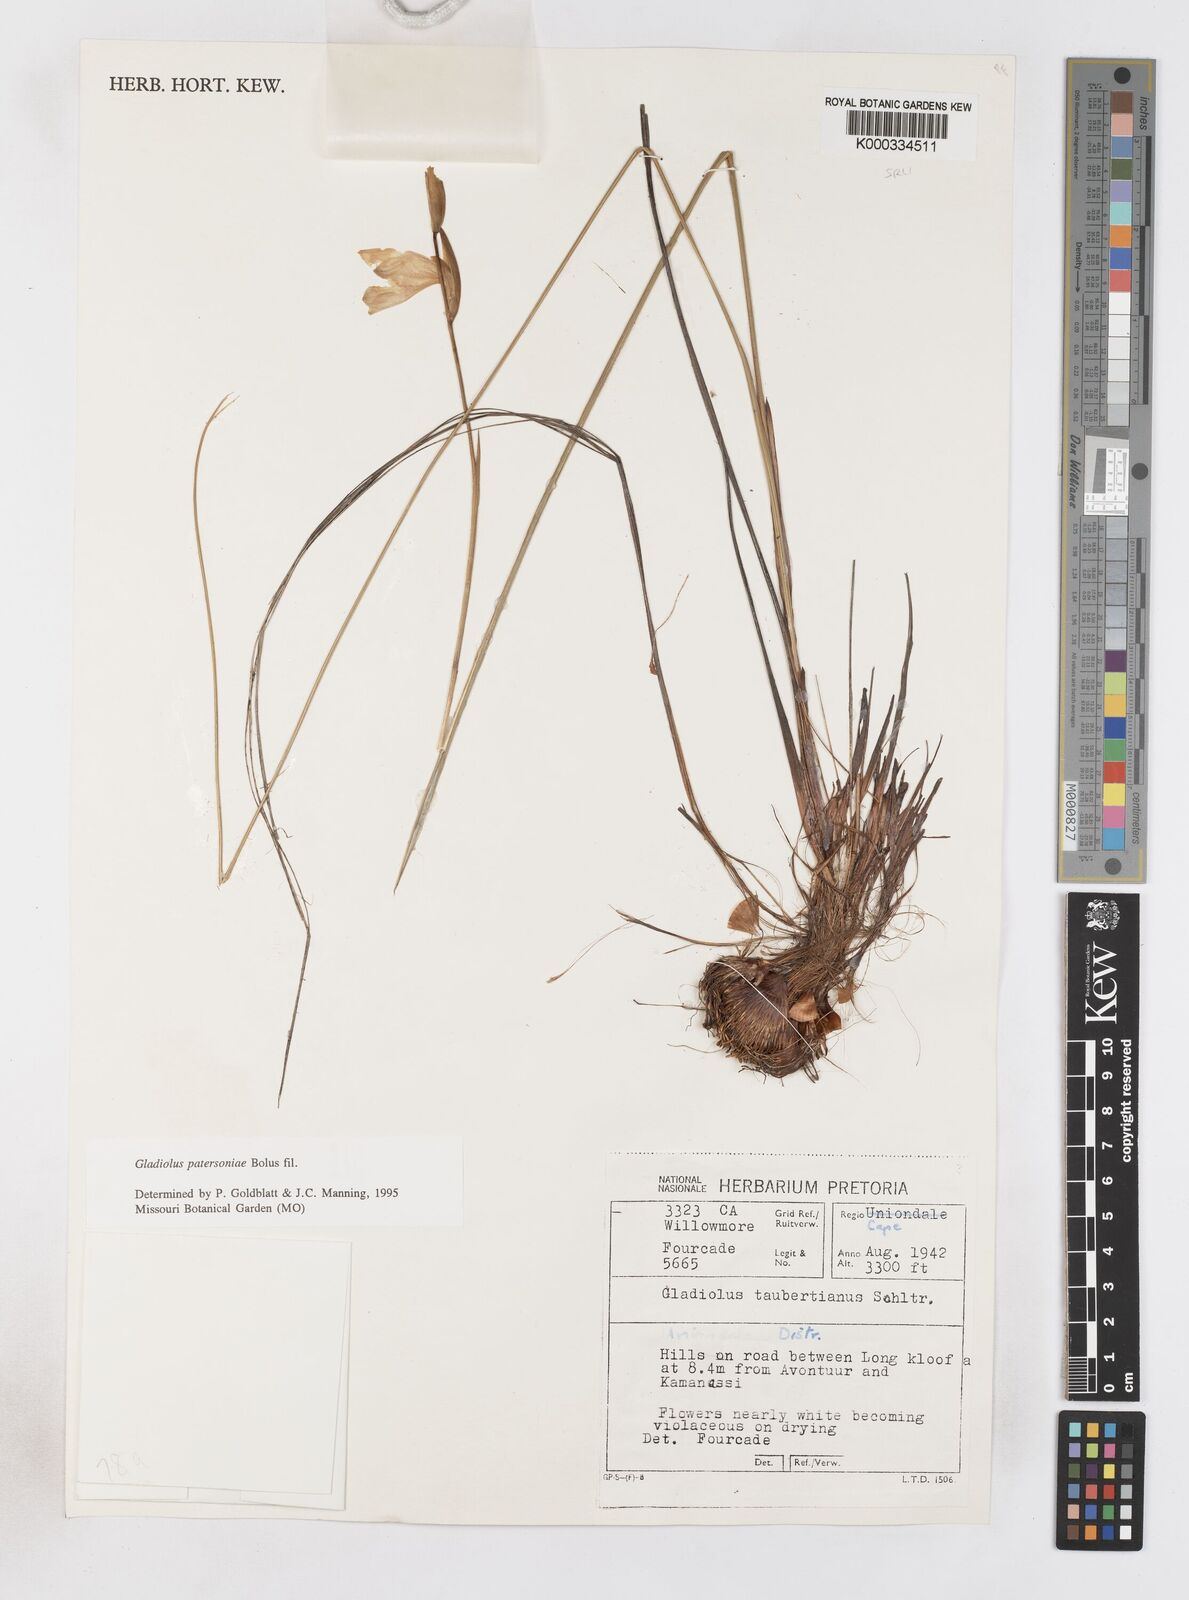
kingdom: Plantae
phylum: Tracheophyta
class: Liliopsida
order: Asparagales
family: Iridaceae
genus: Gladiolus
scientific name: Gladiolus patersoniae
